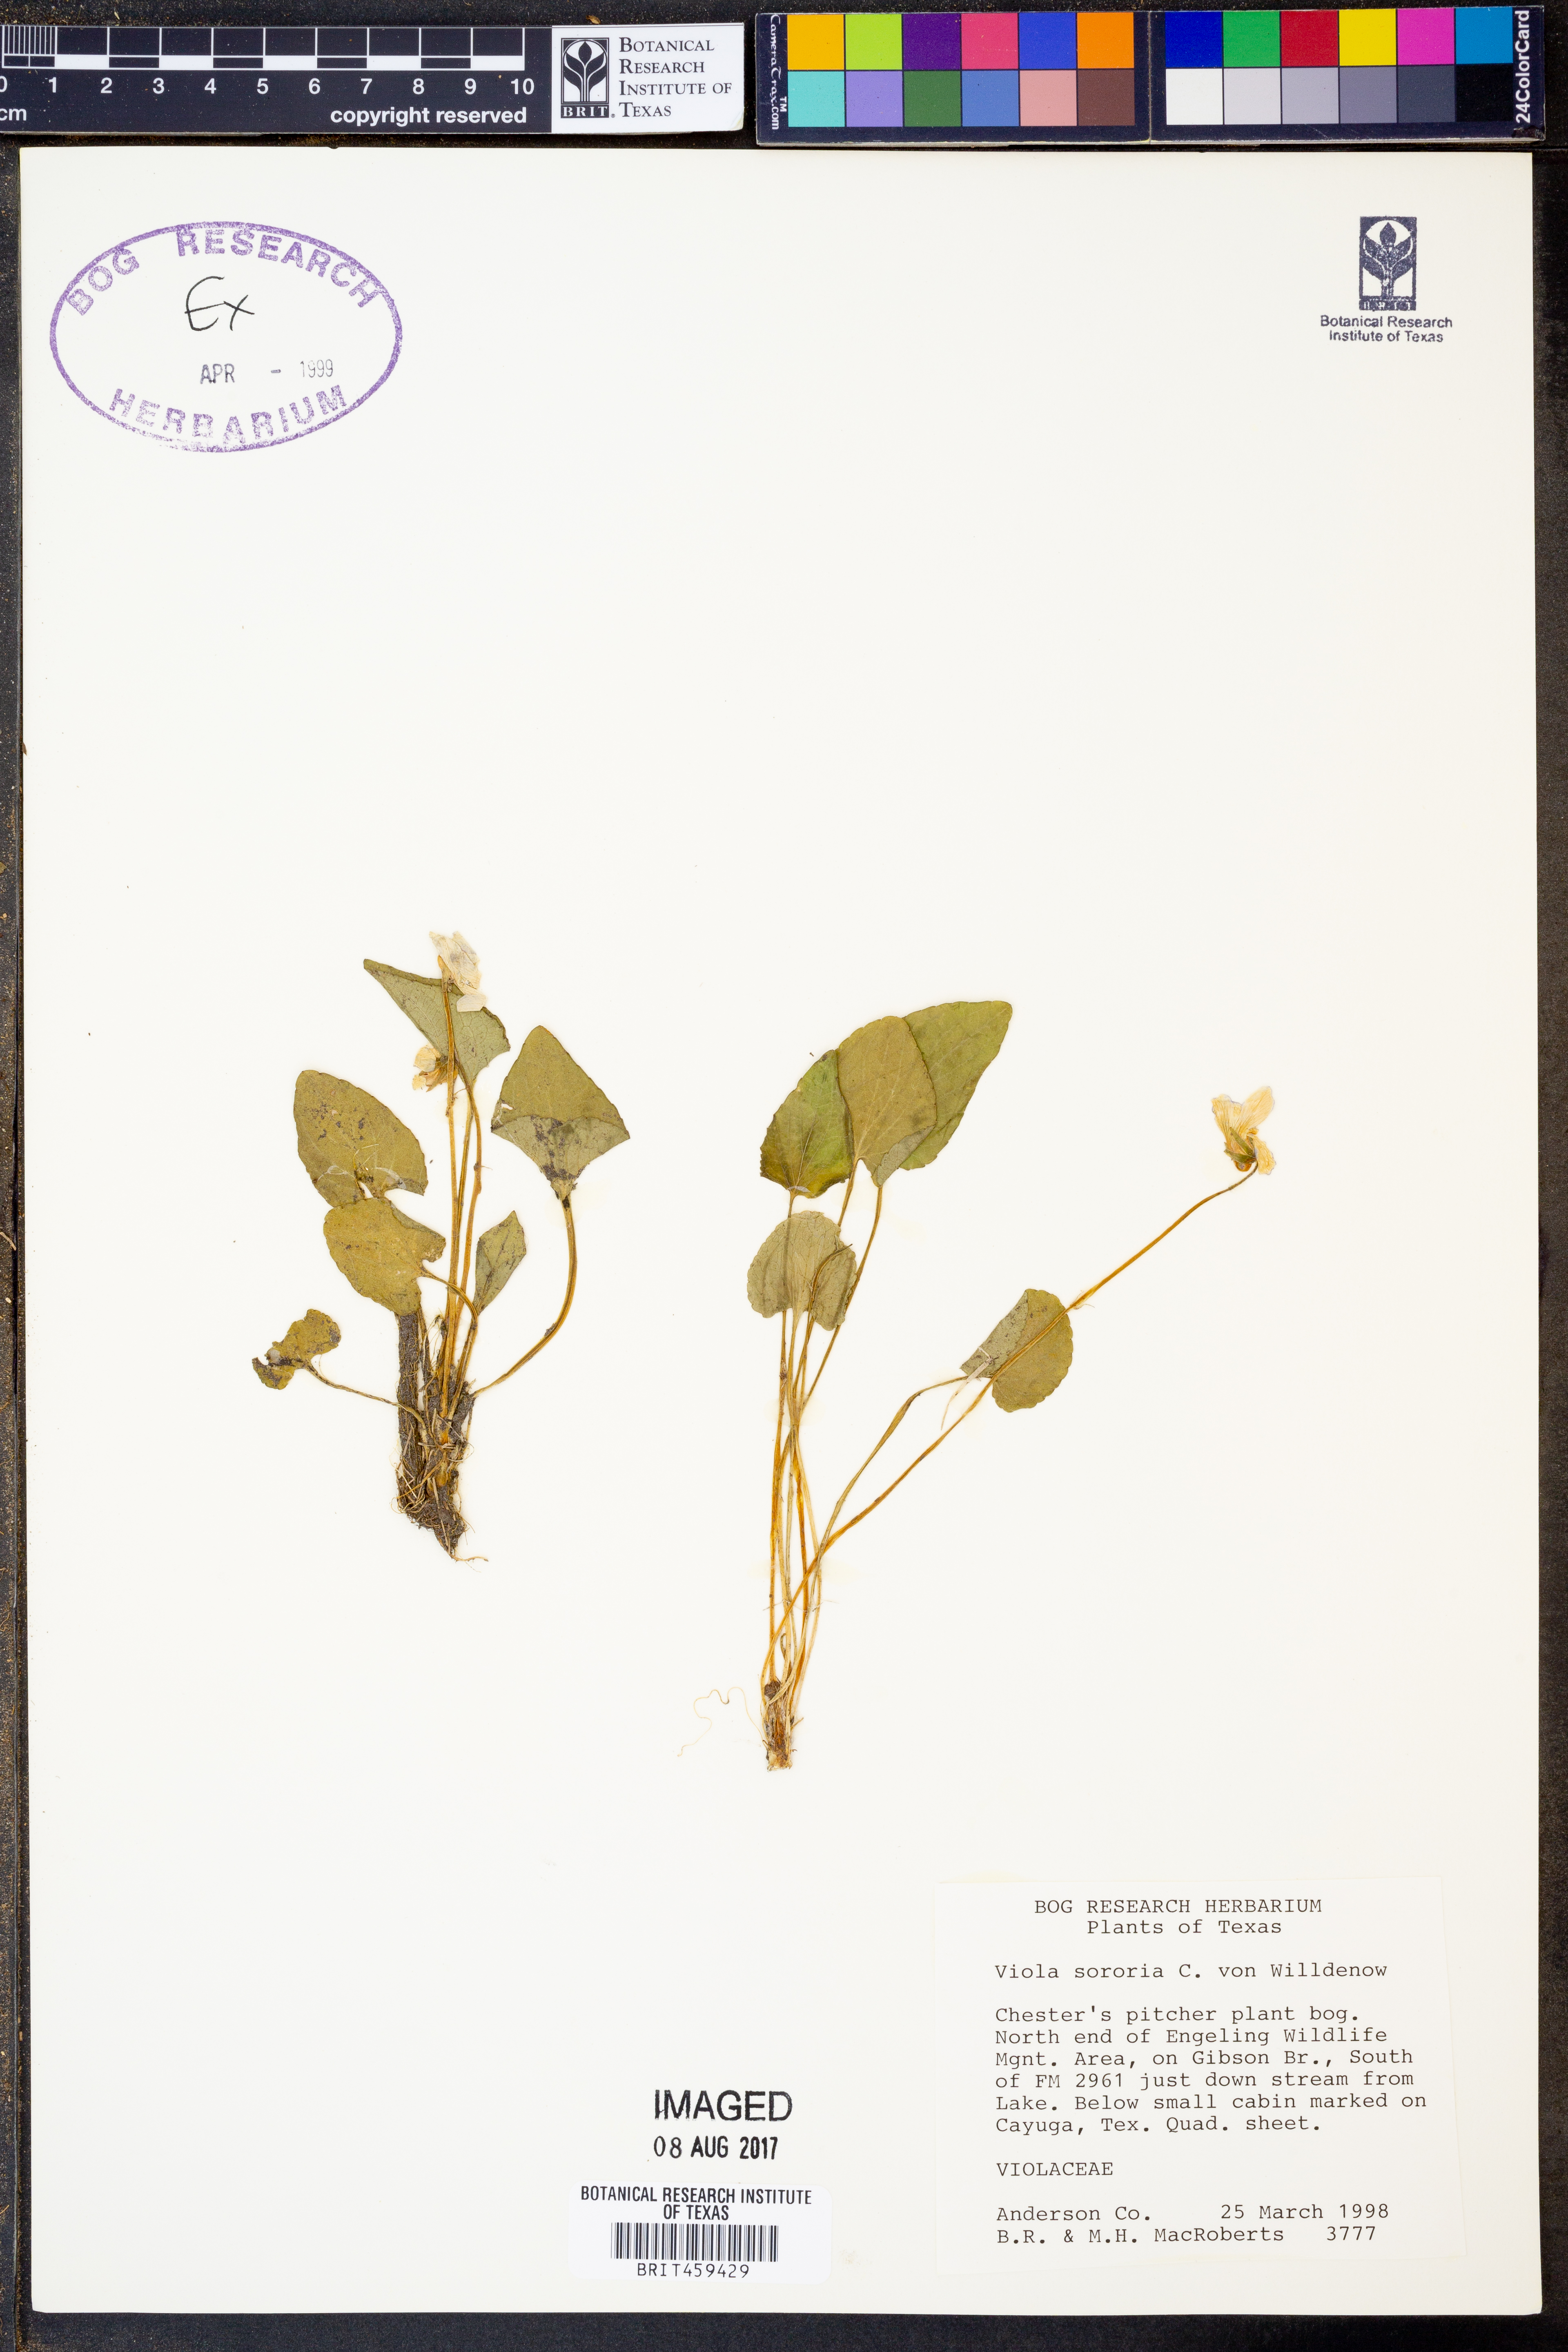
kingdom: Plantae
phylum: Tracheophyta
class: Magnoliopsida
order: Malpighiales
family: Violaceae
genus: Viola
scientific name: Viola sororia
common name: Dooryard violet
